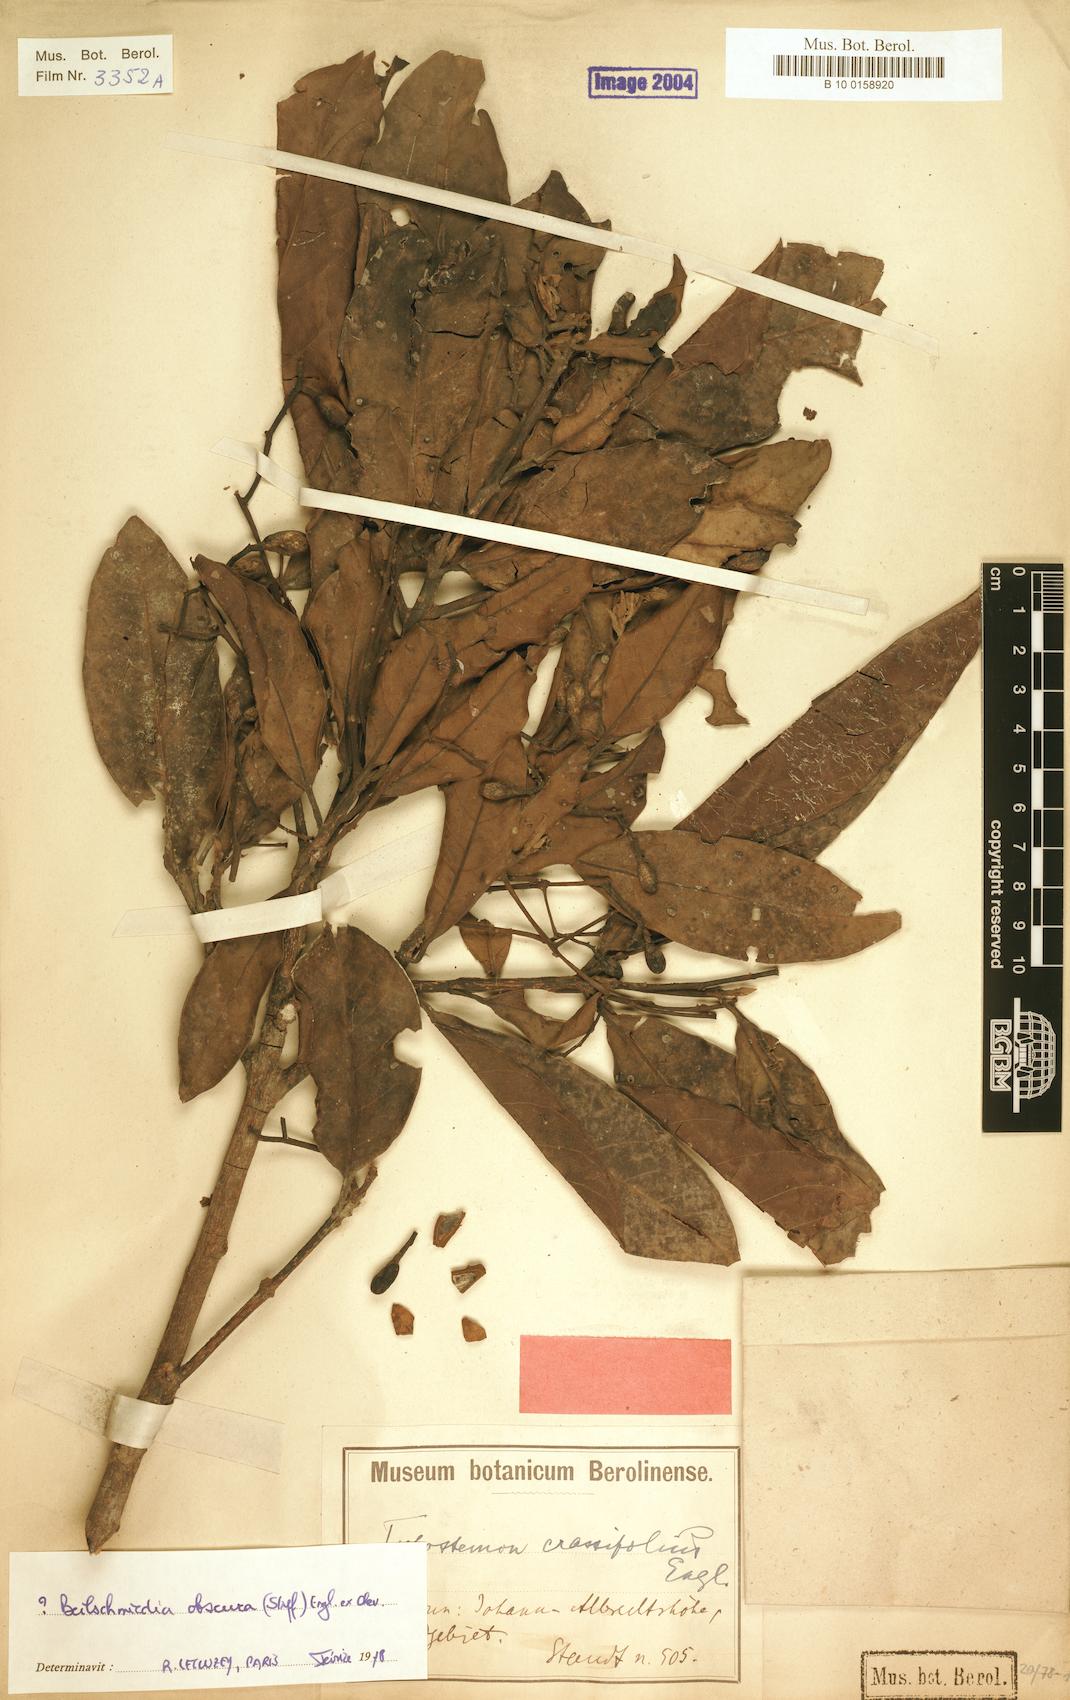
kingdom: Plantae
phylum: Tracheophyta
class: Magnoliopsida
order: Laurales
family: Lauraceae
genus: Beilschmiedia
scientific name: Beilschmiedia gaboonensis
